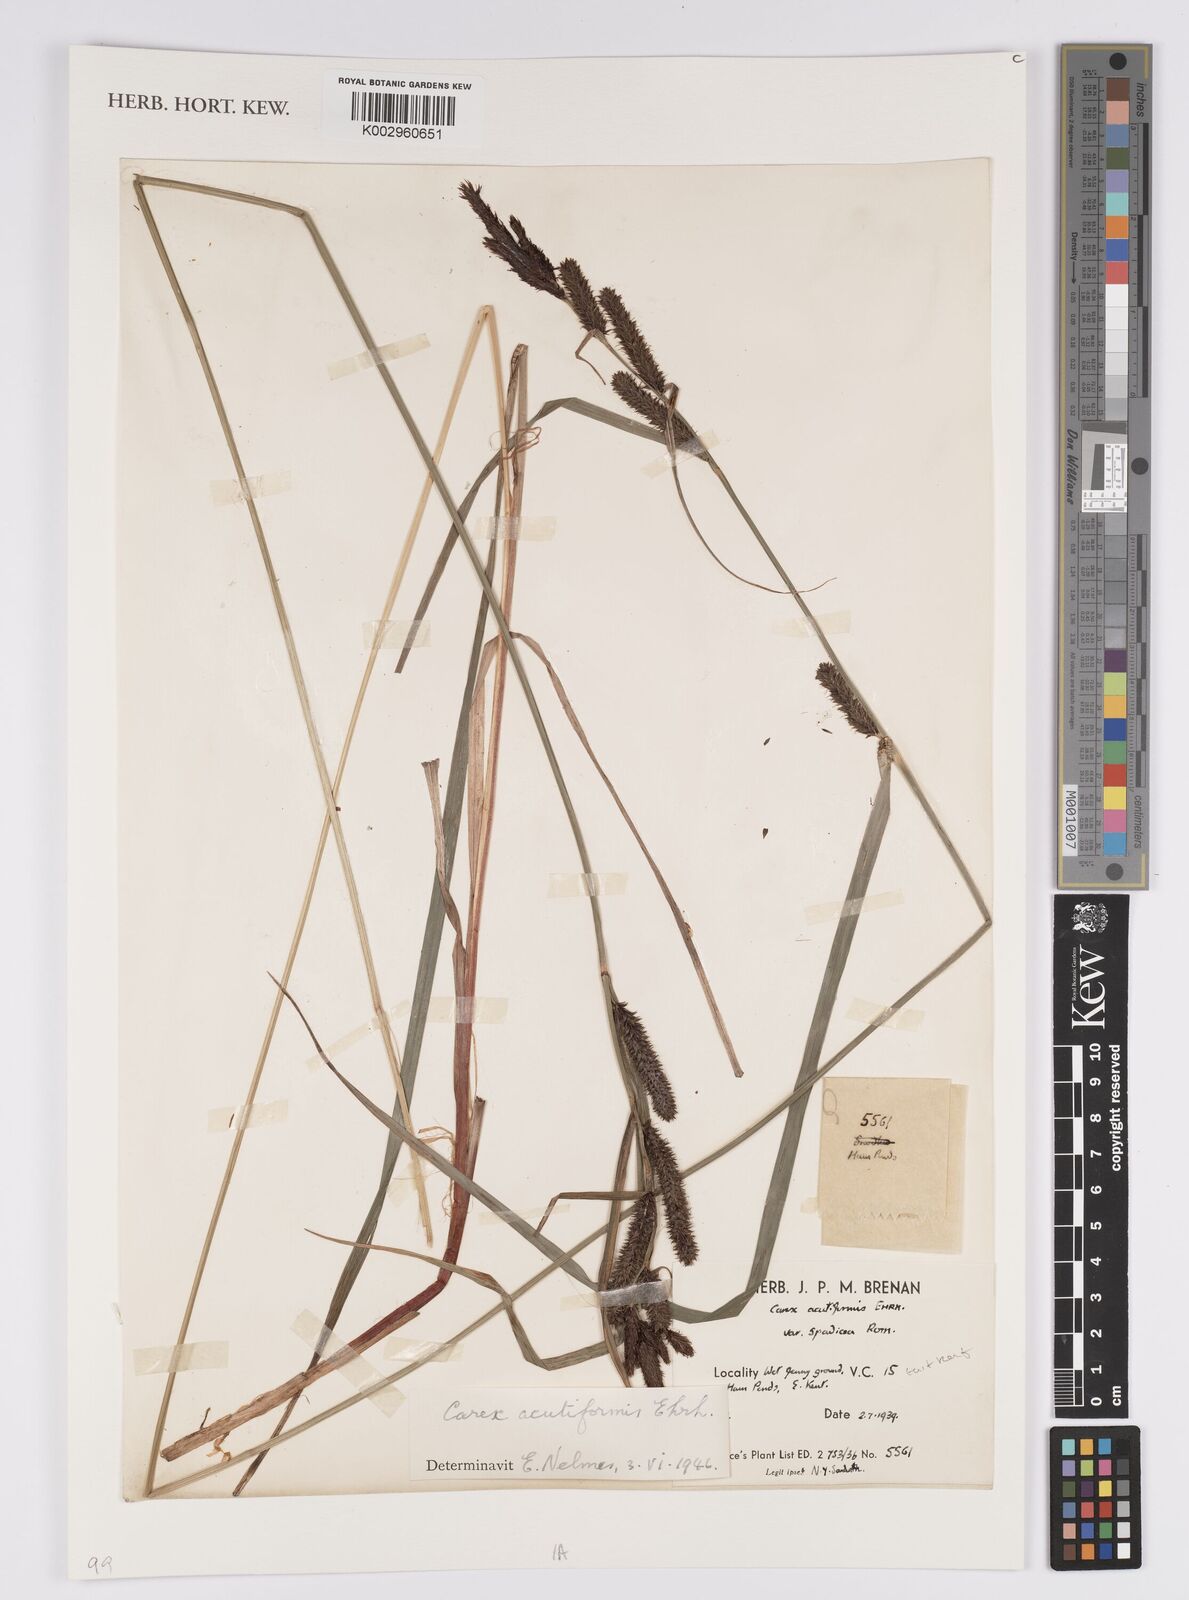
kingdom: Plantae
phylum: Tracheophyta
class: Liliopsida
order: Poales
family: Cyperaceae
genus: Carex
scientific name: Carex acutiformis
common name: Lesser pond-sedge
